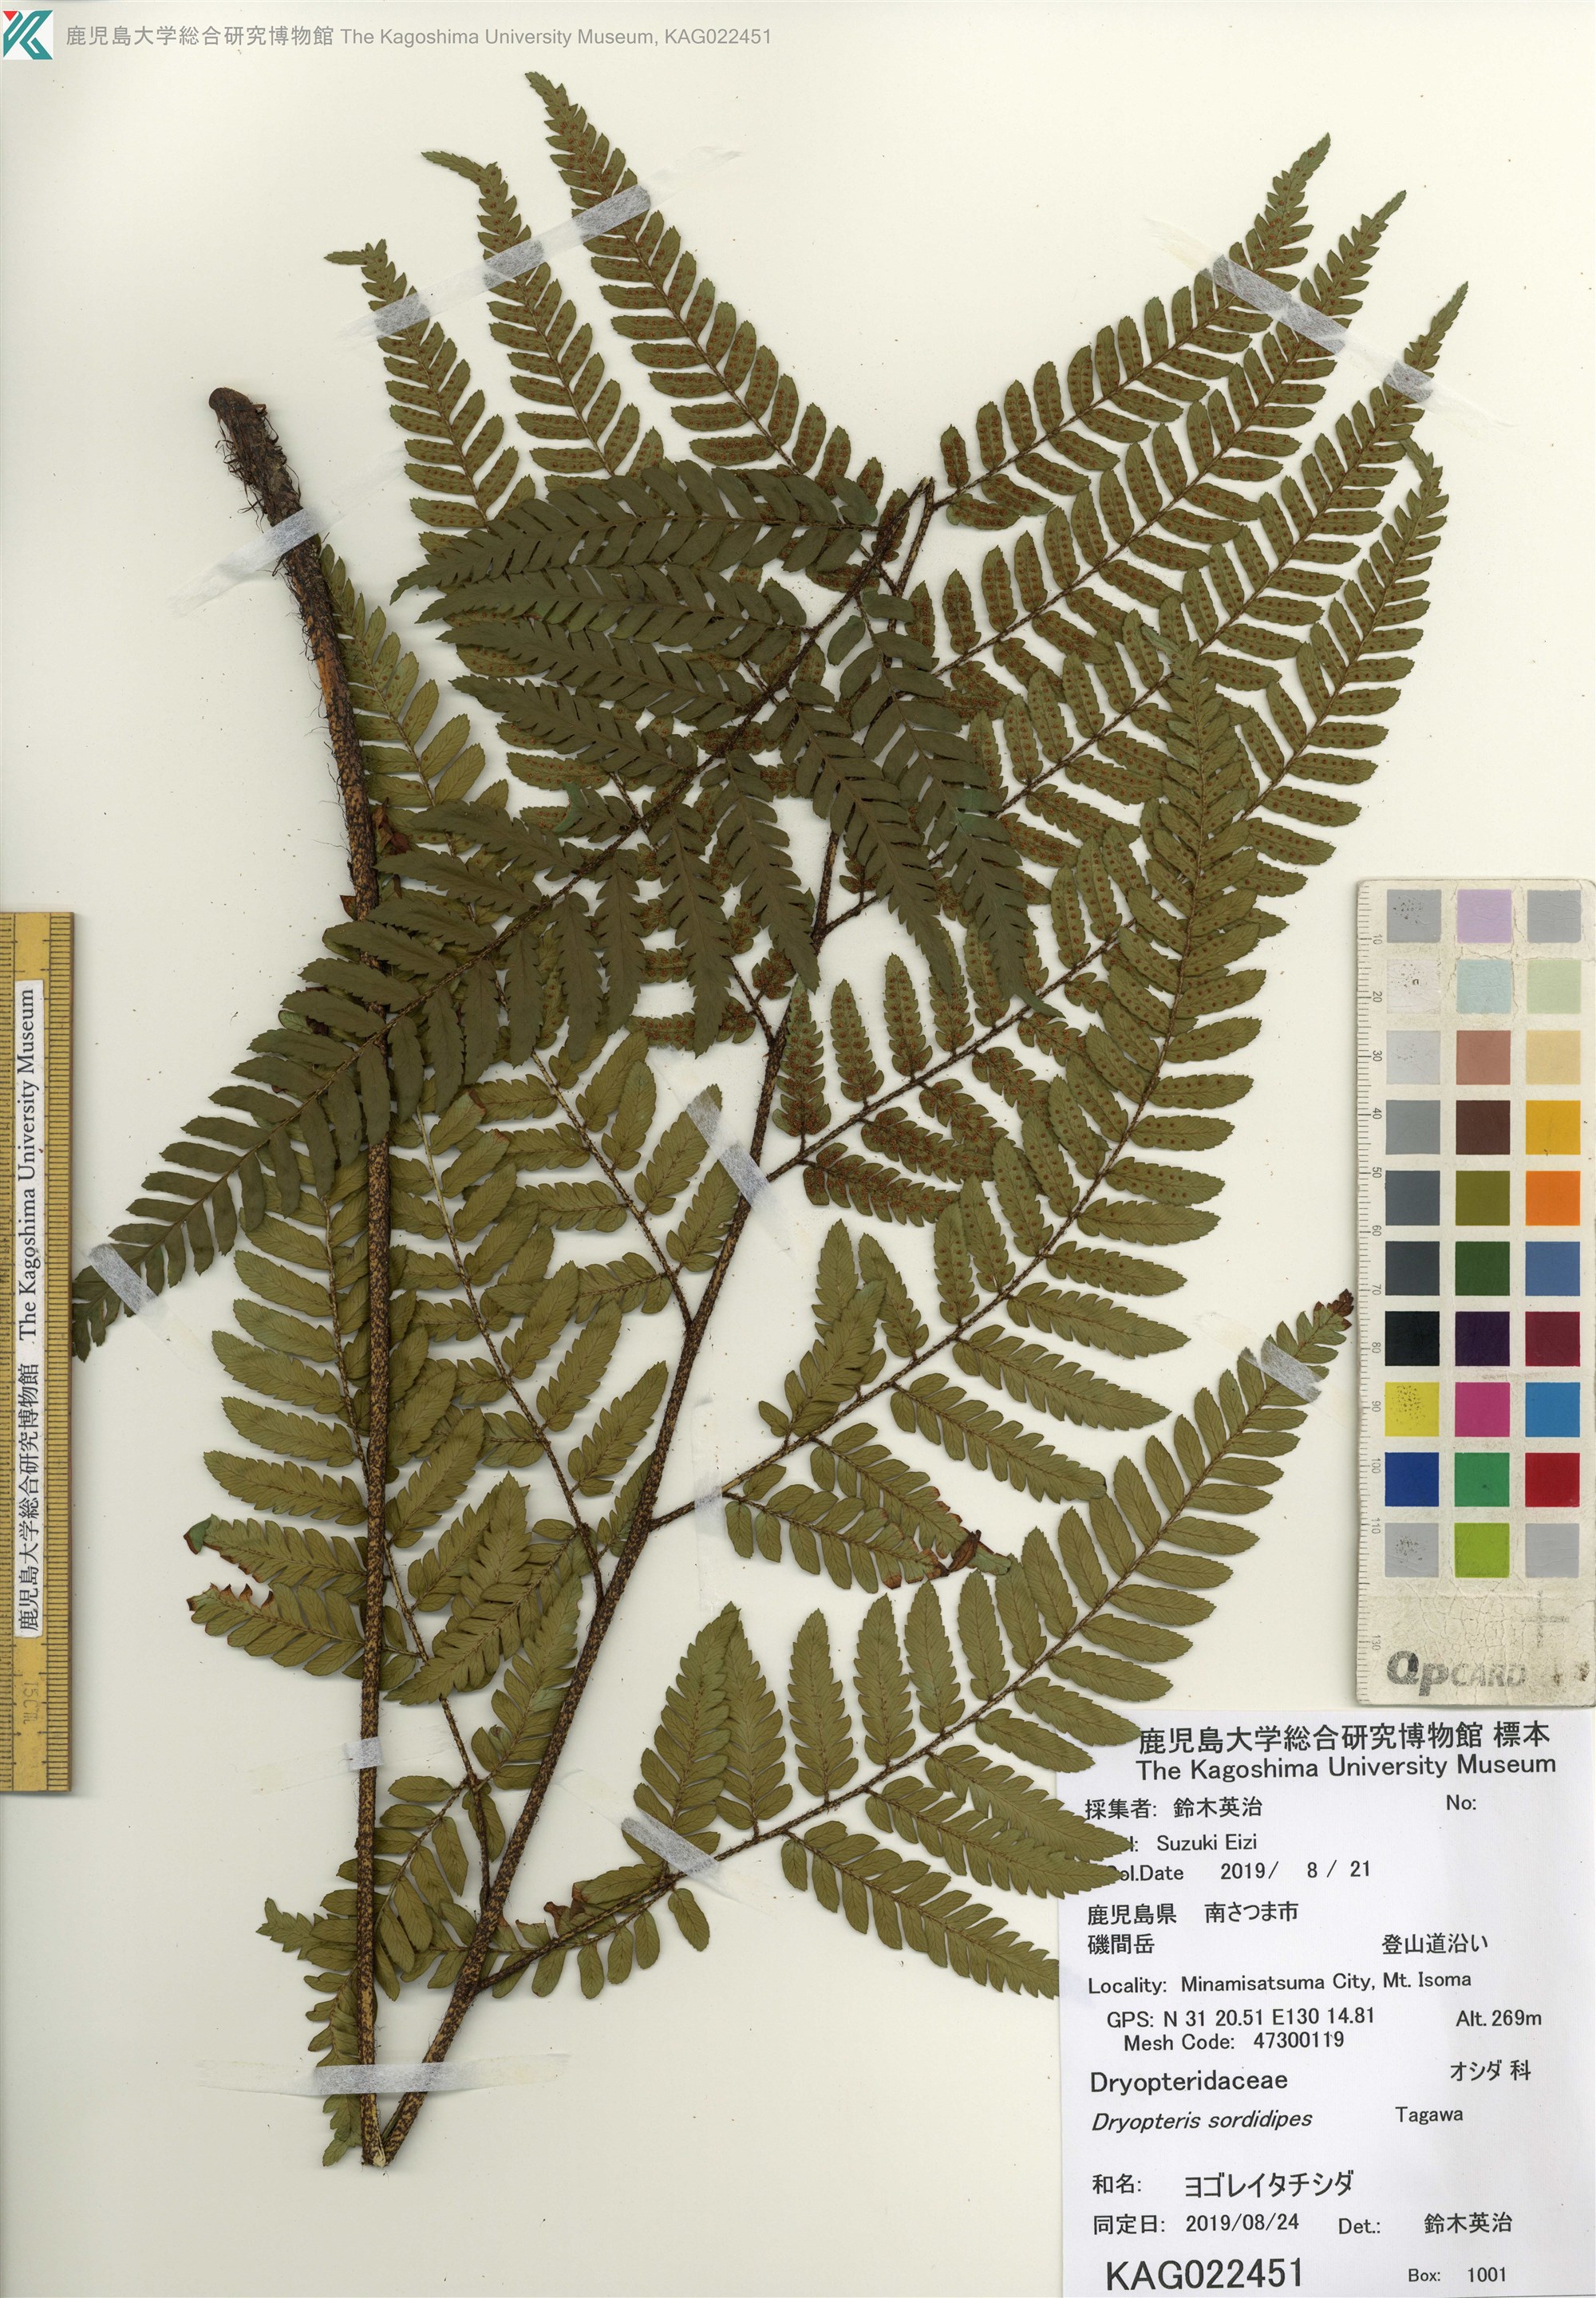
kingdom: Plantae
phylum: Tracheophyta
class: Polypodiopsida
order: Polypodiales
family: Dryopteridaceae
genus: Dryopteris
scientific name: Dryopteris sordidipes
